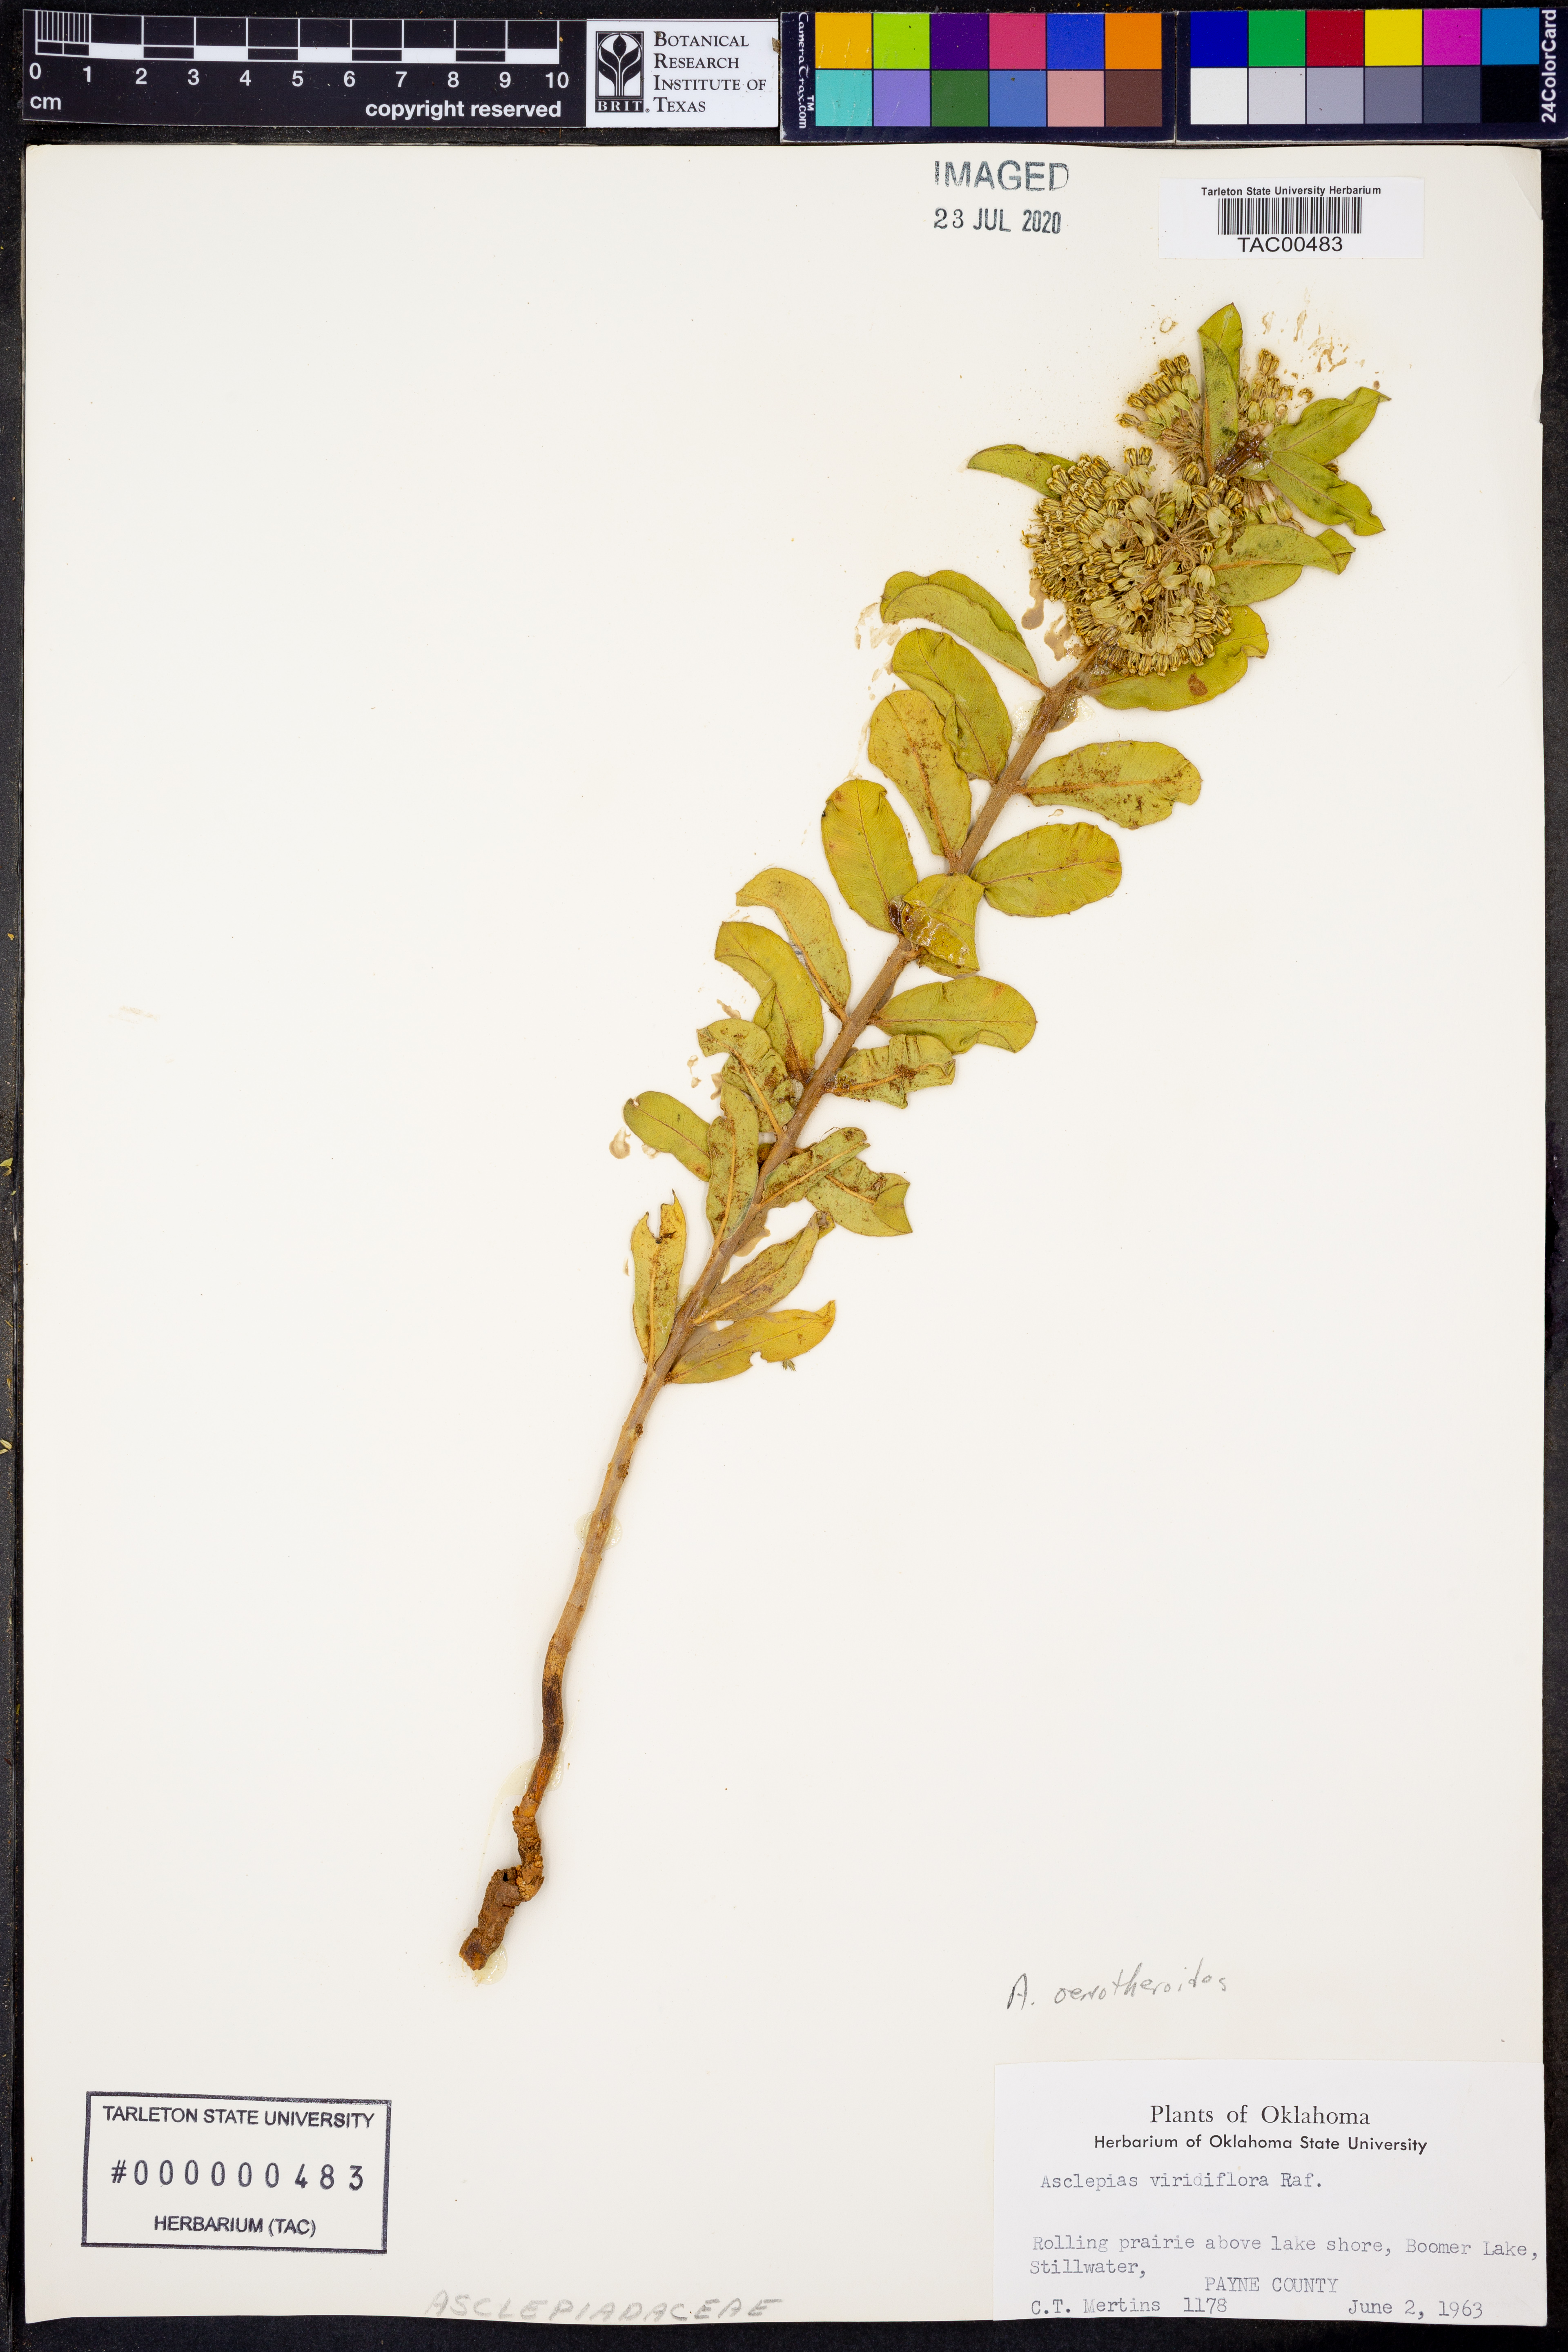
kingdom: Plantae
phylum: Tracheophyta
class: Magnoliopsida
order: Gentianales
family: Apocynaceae
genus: Asclepias
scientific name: Asclepias oenotheroides
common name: Zizotes milkweed
